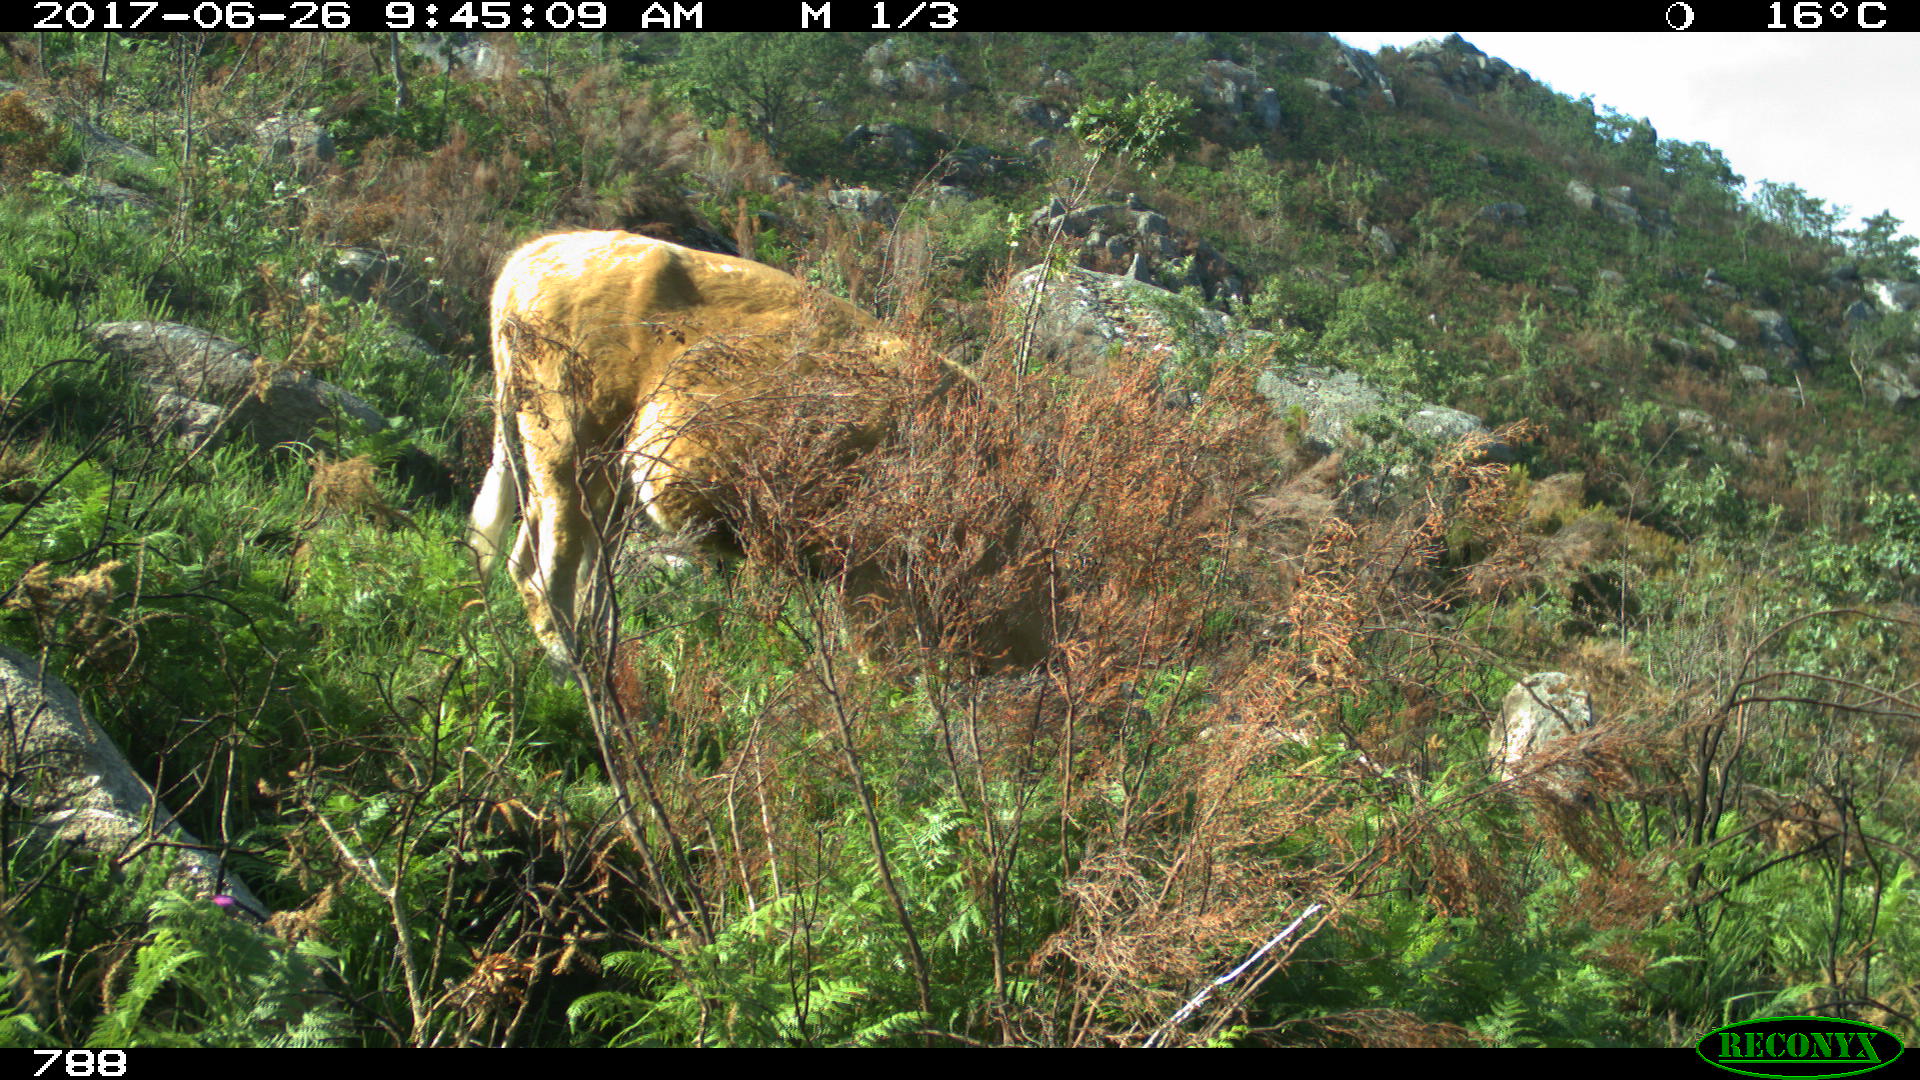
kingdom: Animalia
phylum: Chordata
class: Mammalia
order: Artiodactyla
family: Bovidae
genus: Bos
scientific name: Bos taurus
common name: Domesticated cattle
